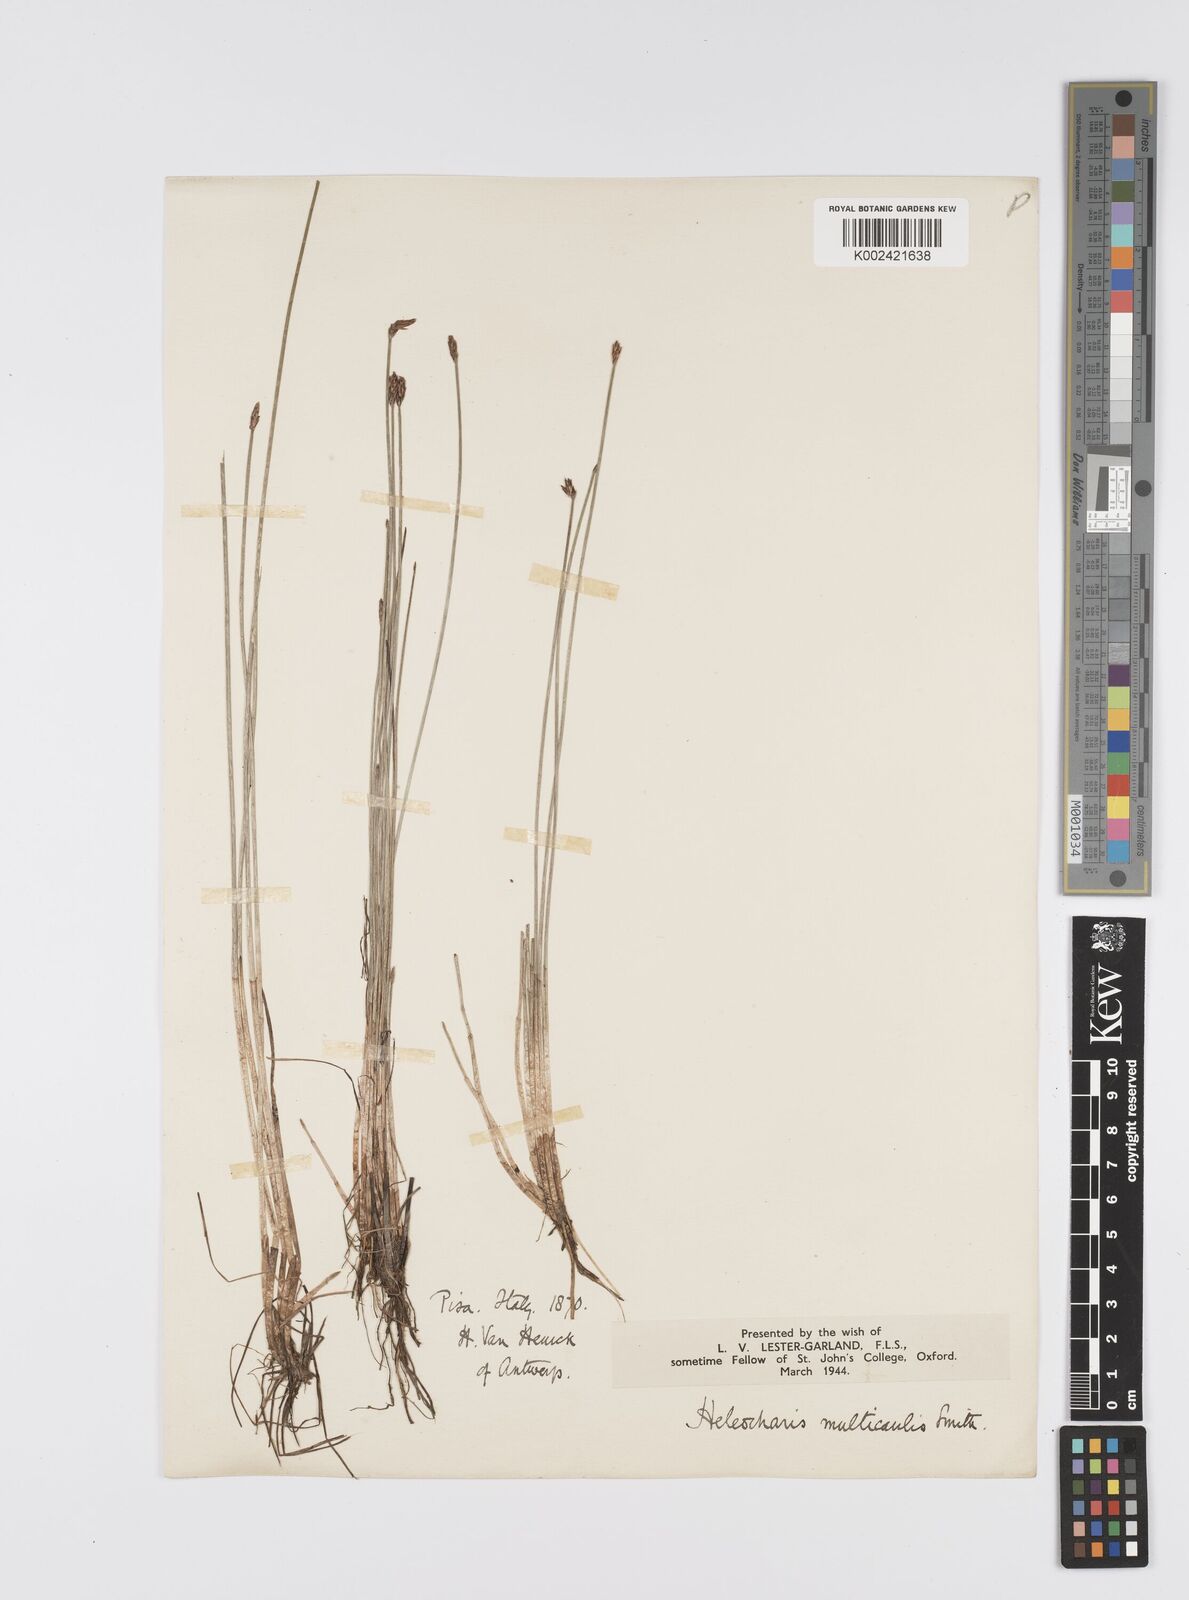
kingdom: Plantae
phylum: Tracheophyta
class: Liliopsida
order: Poales
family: Cyperaceae
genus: Eleocharis
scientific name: Eleocharis multicaulis
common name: Many-stalked spike-rush
